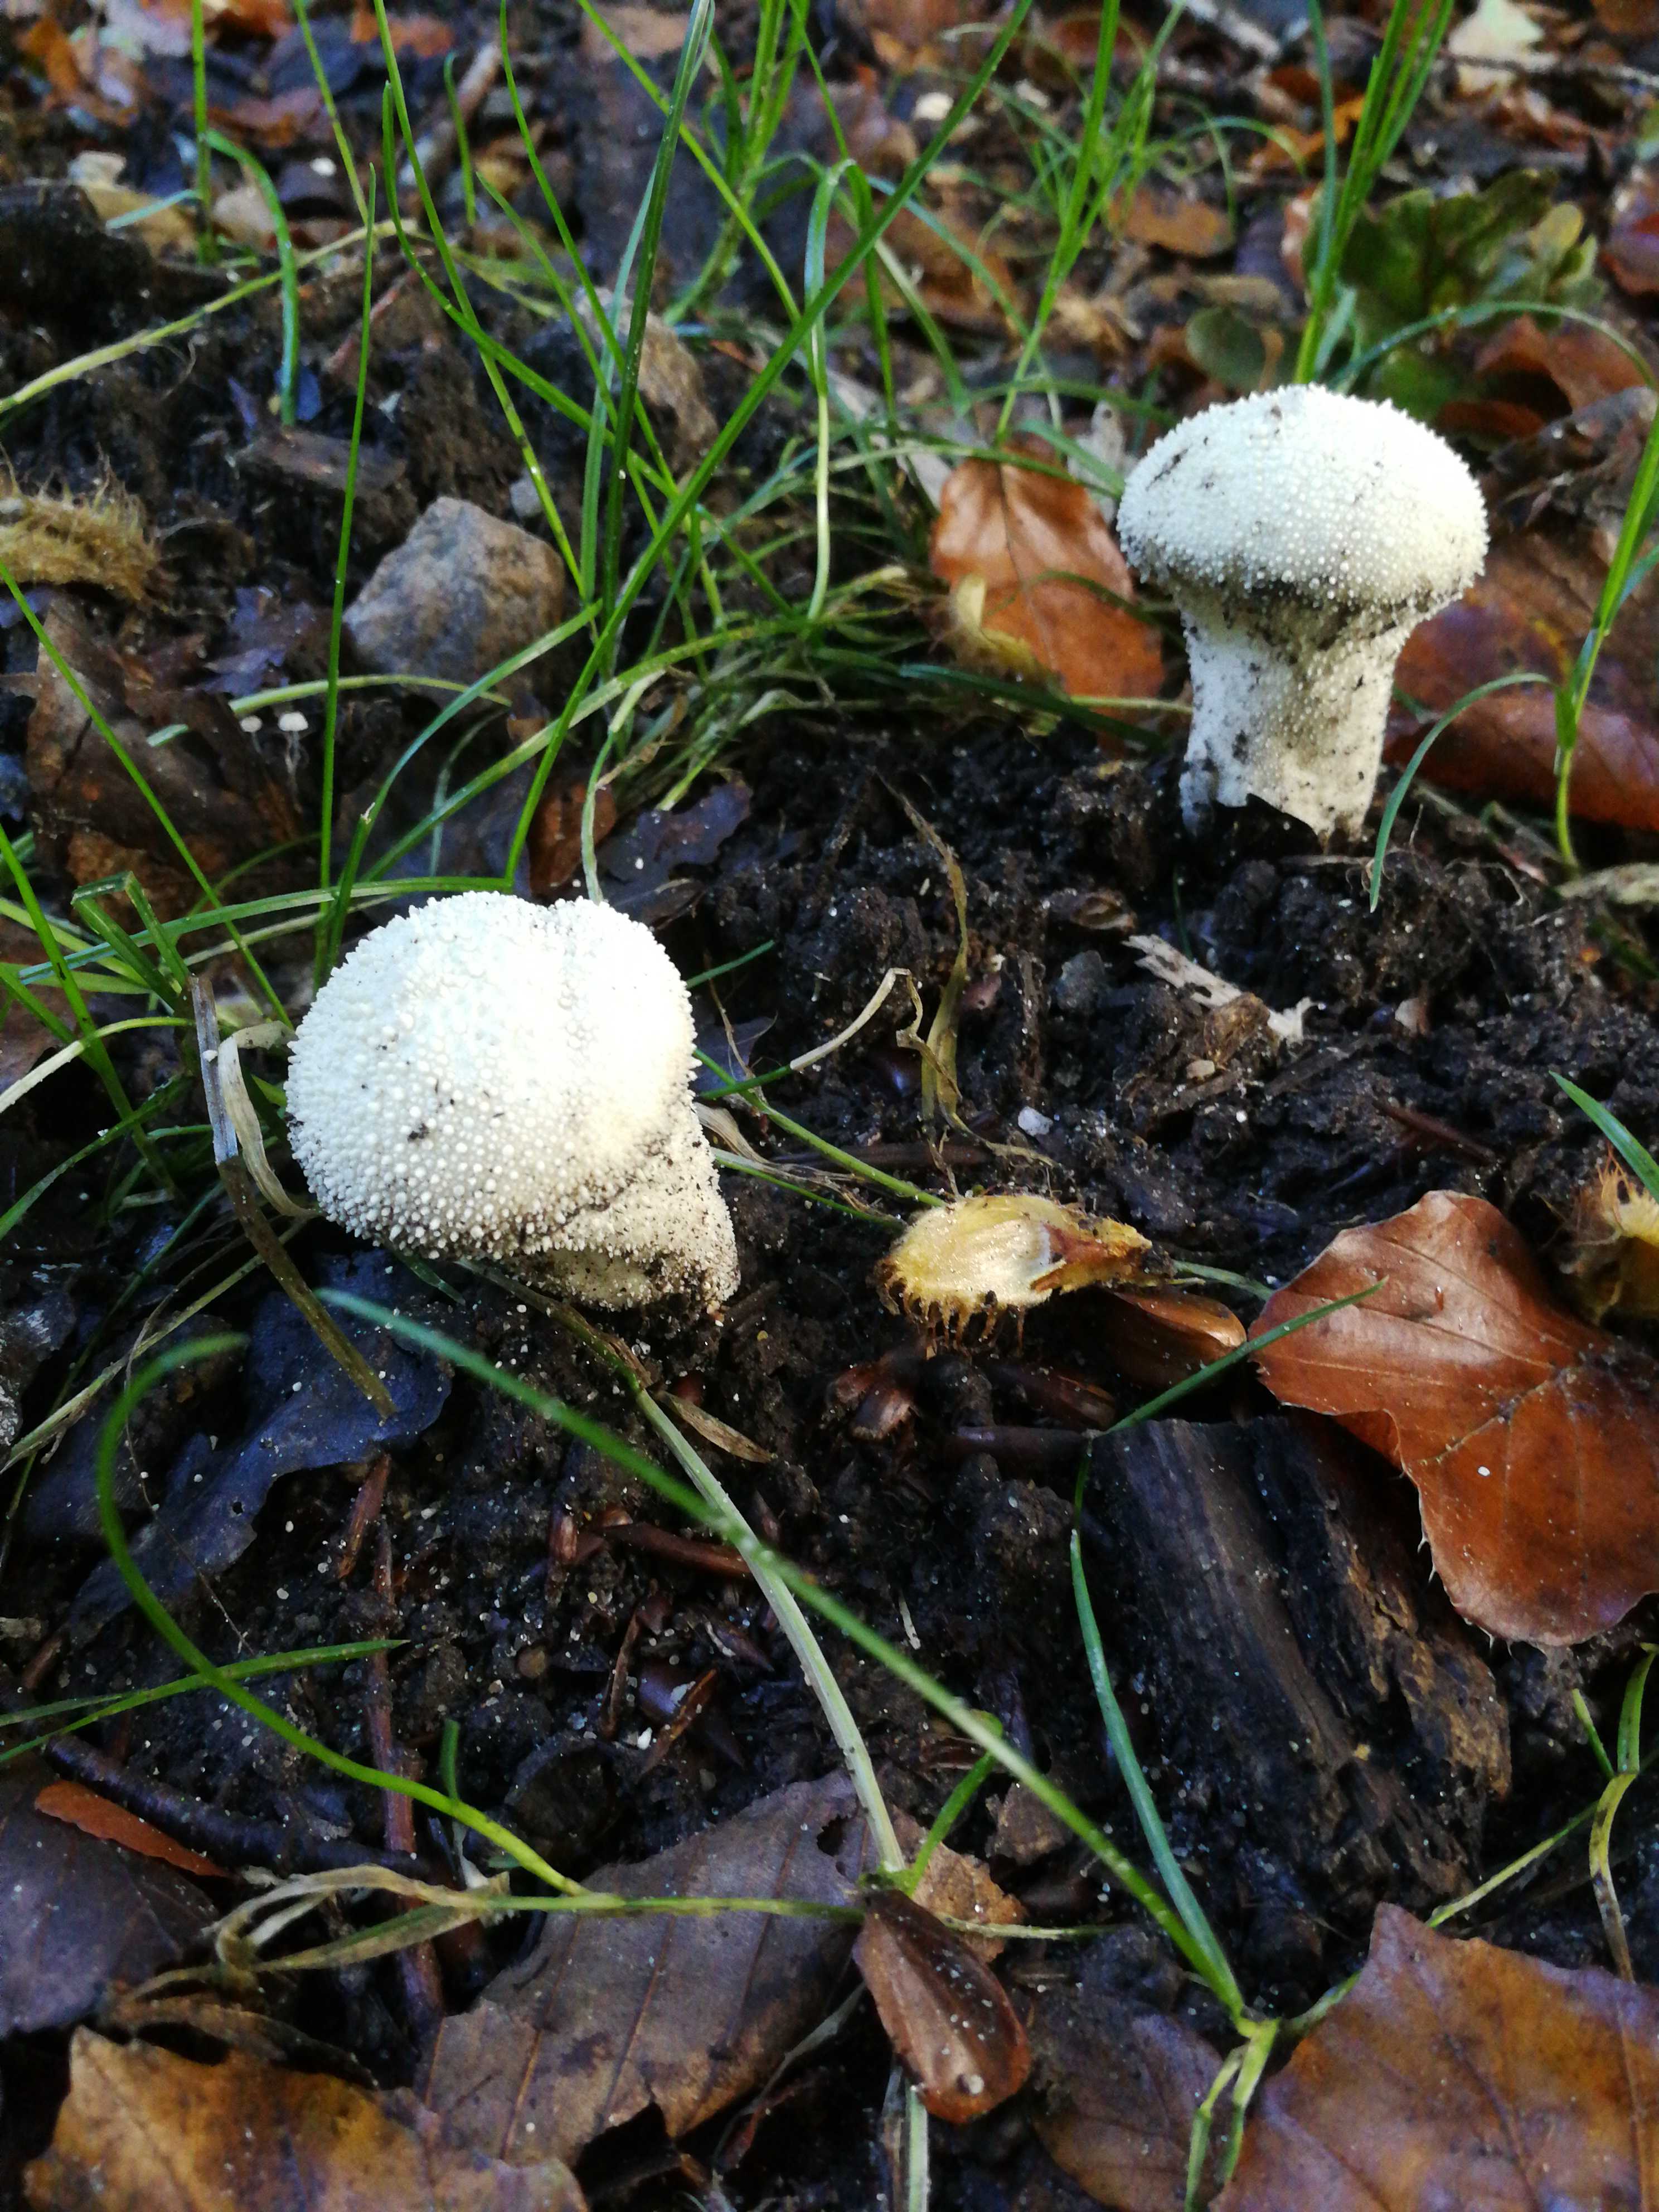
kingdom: Fungi
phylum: Basidiomycota
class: Agaricomycetes
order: Agaricales
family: Lycoperdaceae
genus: Lycoperdon
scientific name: Lycoperdon perlatum
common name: krystal-støvbold
